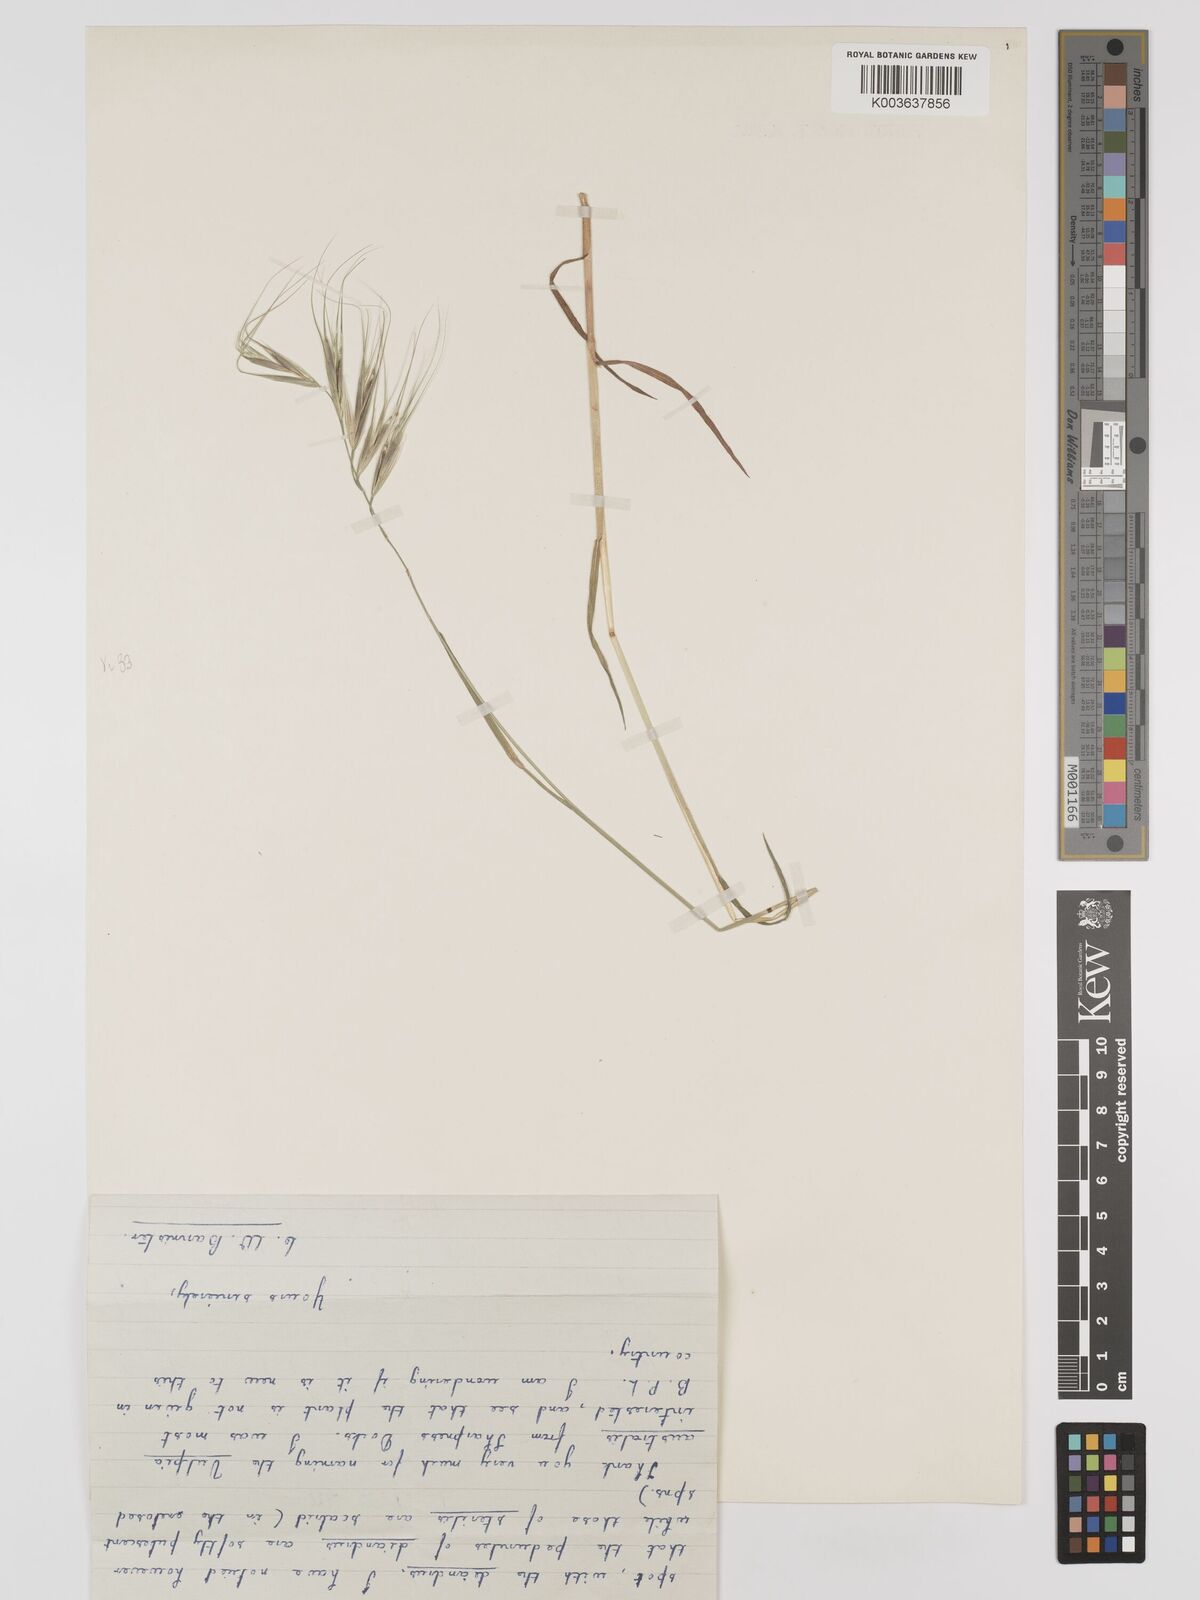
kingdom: Plantae
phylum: Tracheophyta
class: Liliopsida
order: Poales
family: Poaceae
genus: Bromus
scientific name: Bromus
